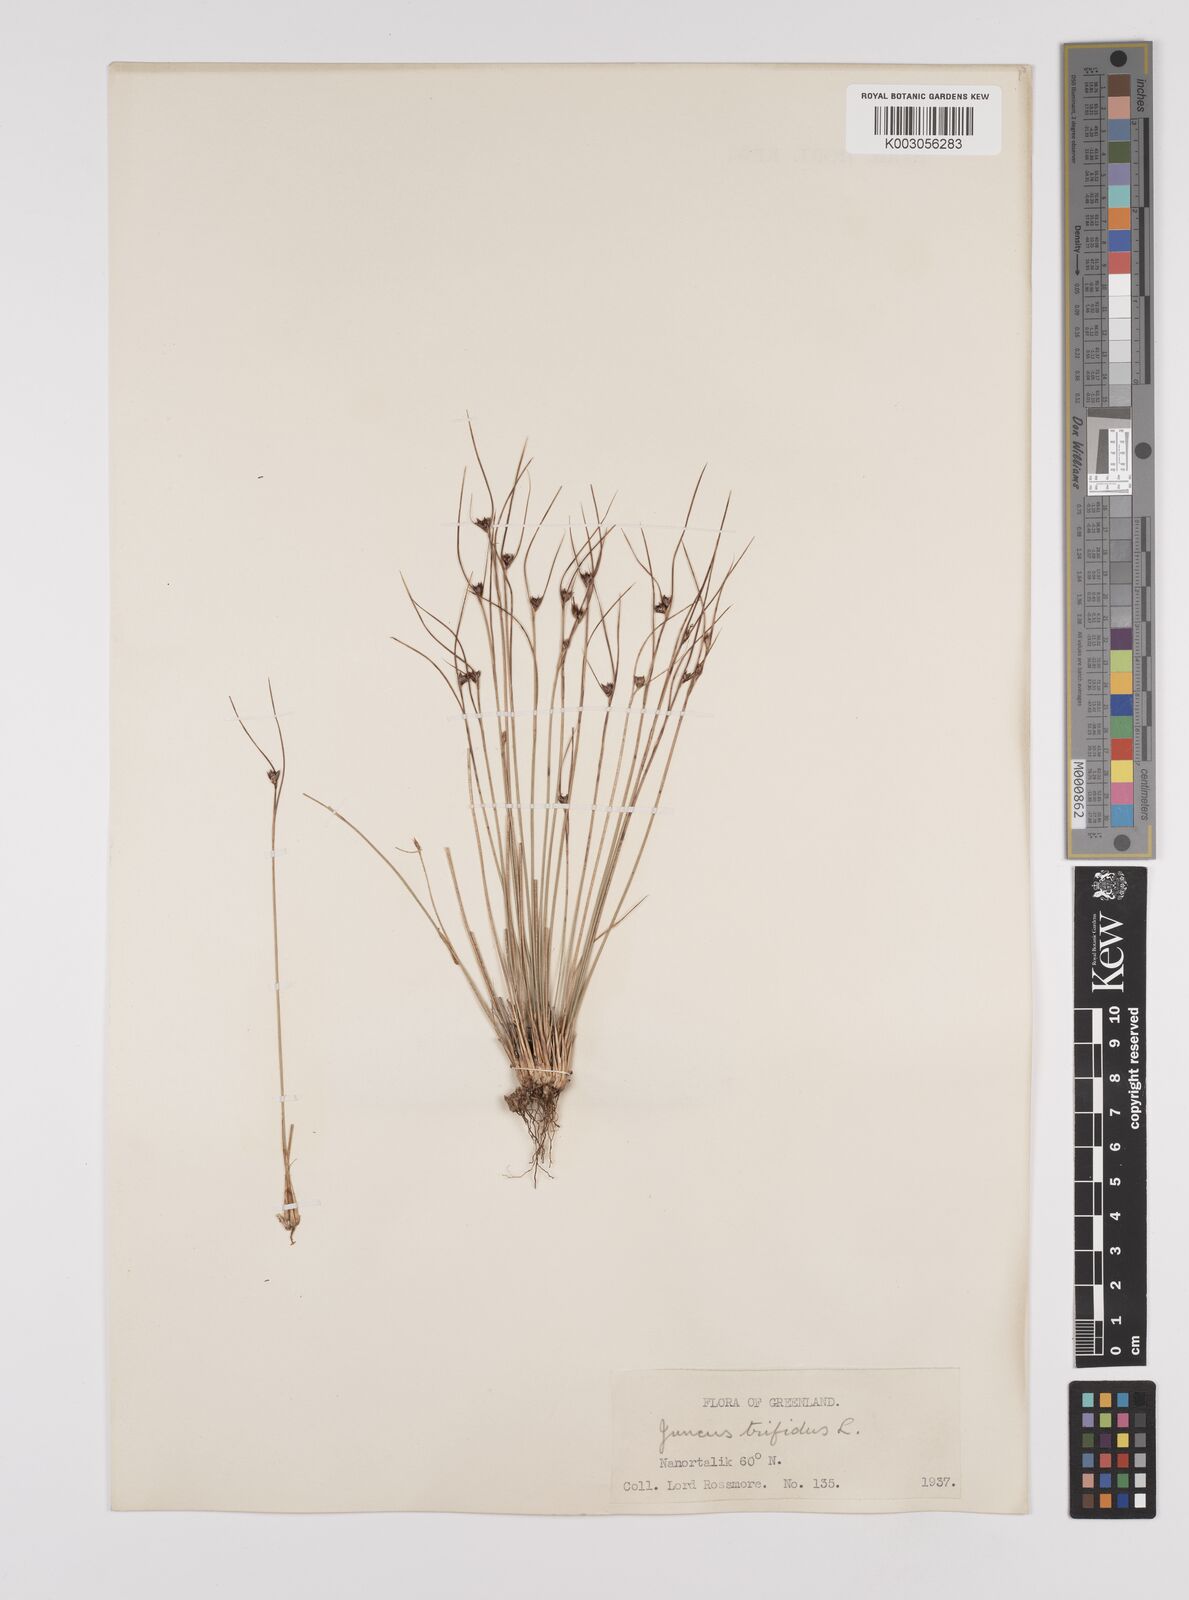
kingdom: Plantae
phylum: Tracheophyta
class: Liliopsida
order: Poales
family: Juncaceae
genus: Oreojuncus
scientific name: Oreojuncus trifidus
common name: Highland rush
